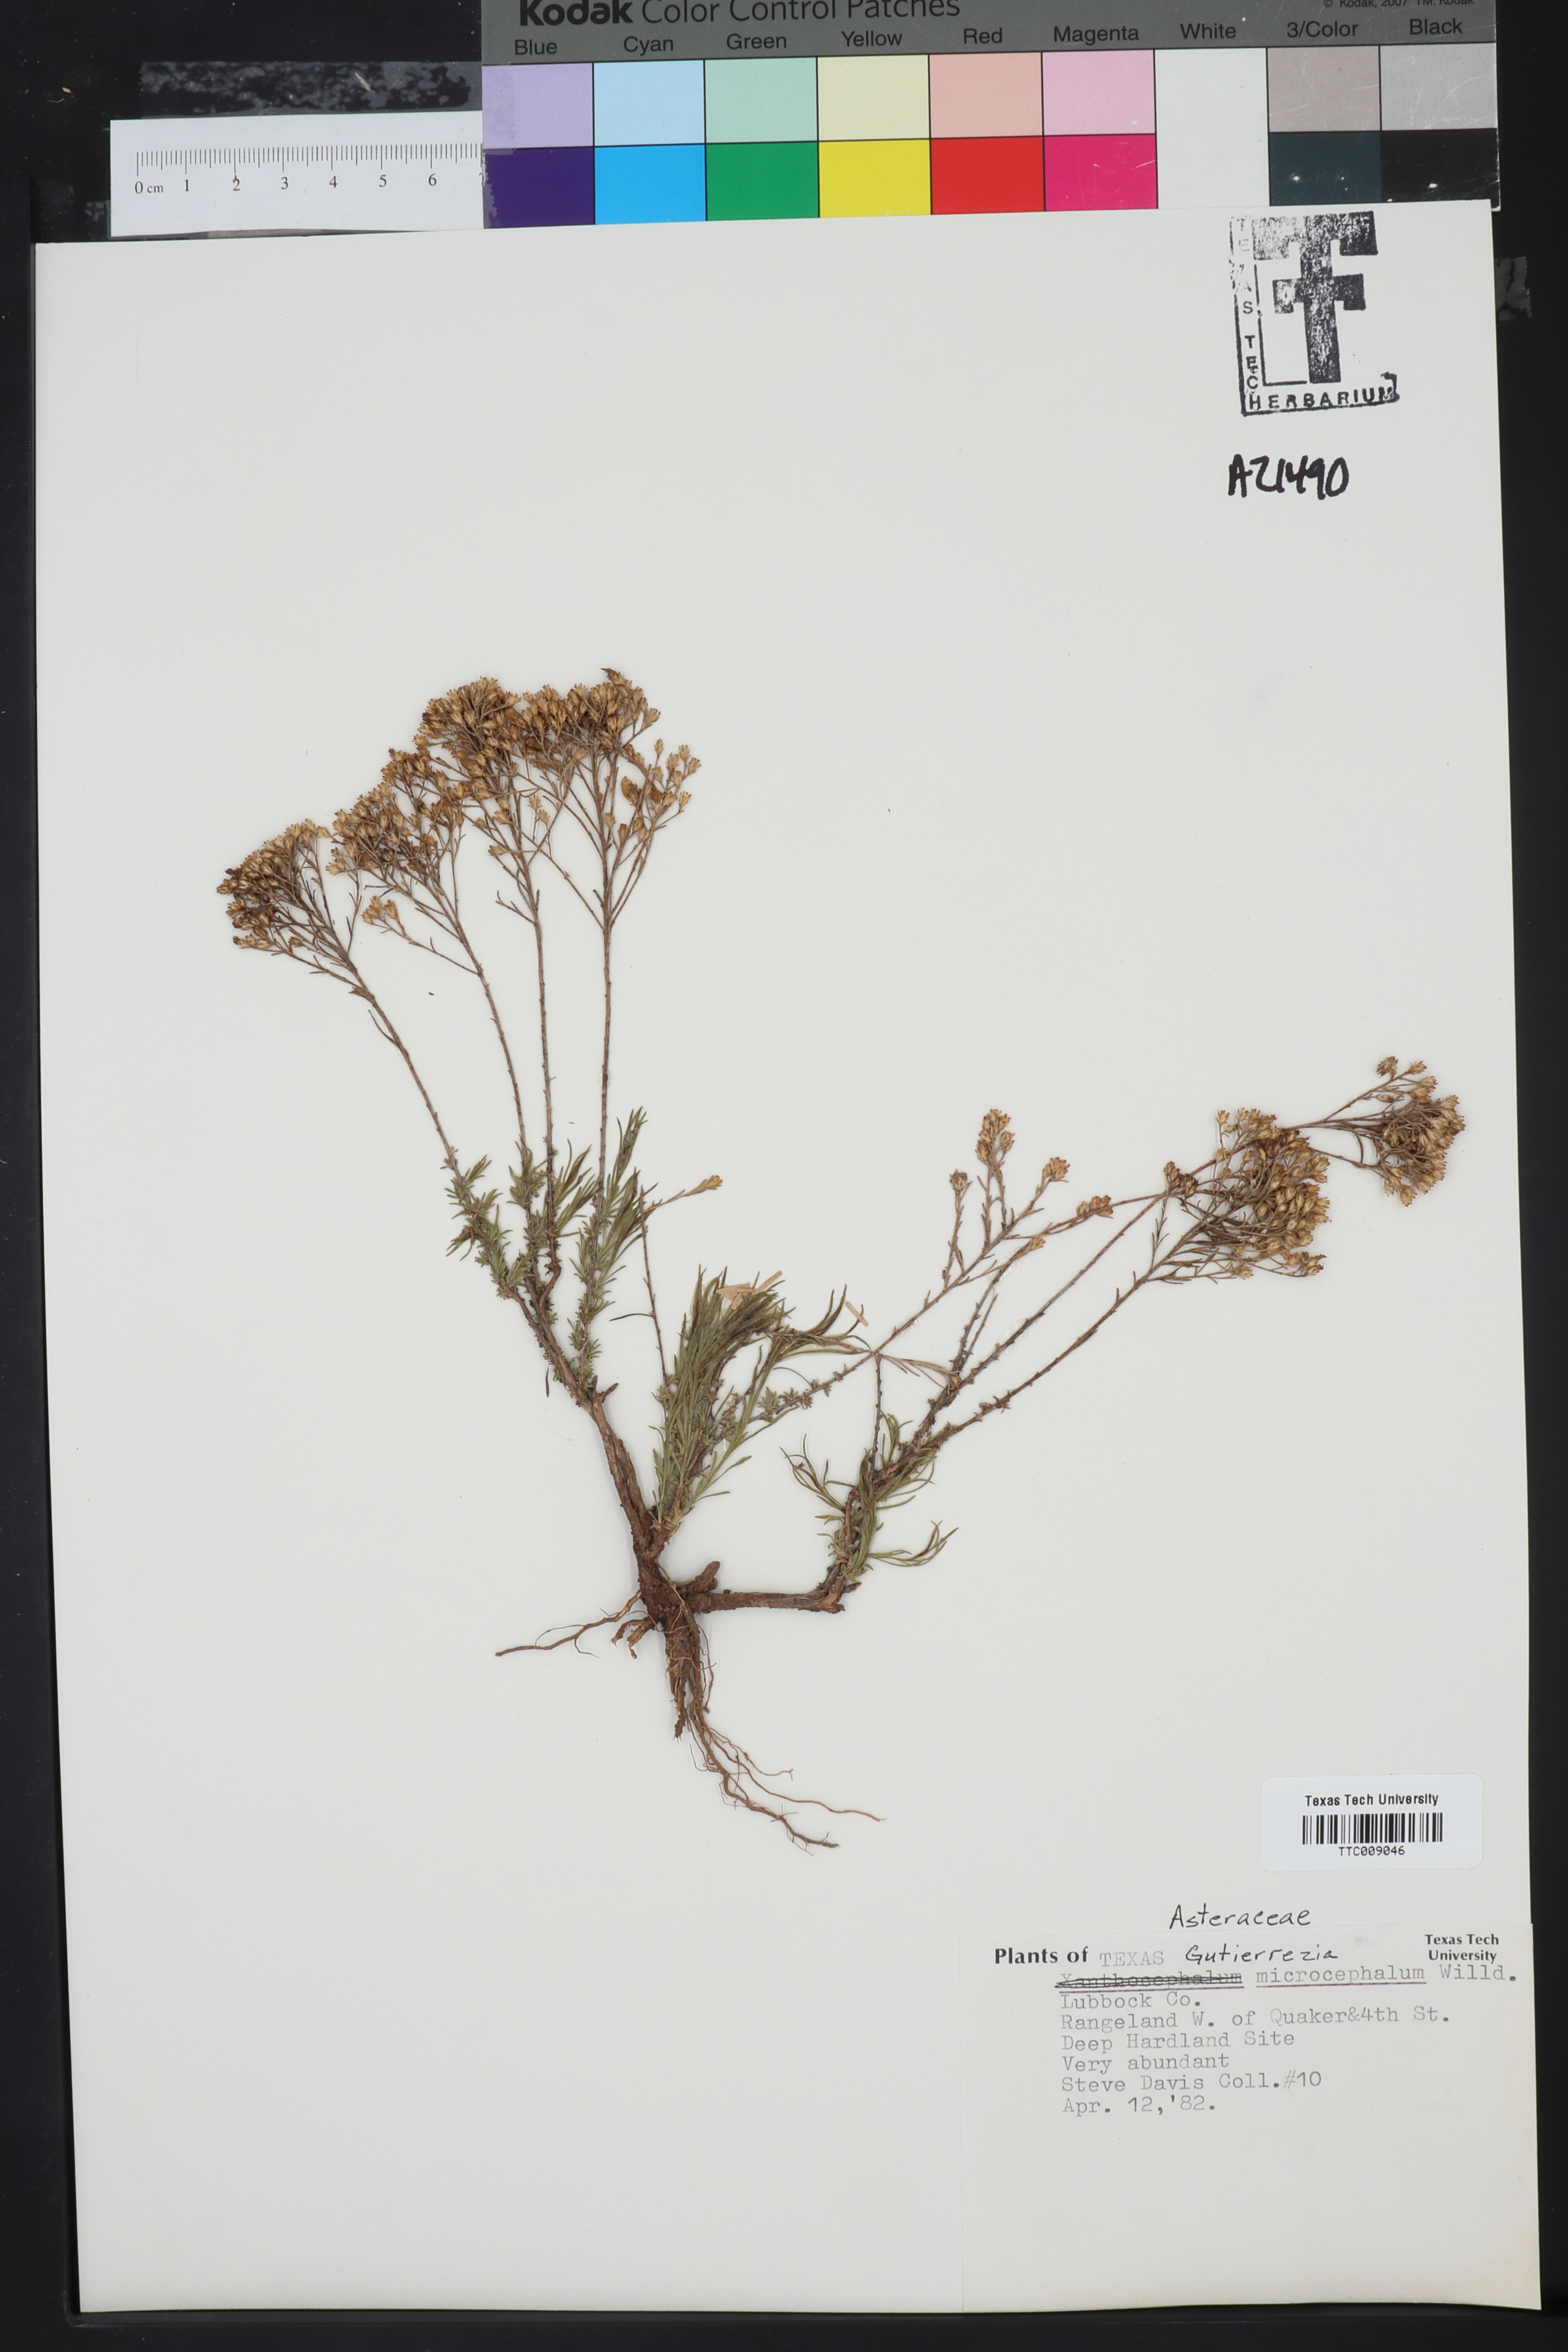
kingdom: Plantae
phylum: Tracheophyta
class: Magnoliopsida
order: Asterales
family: Asteraceae
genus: Gutierrezia
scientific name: Gutierrezia microcephala
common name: Thread snakeweed
